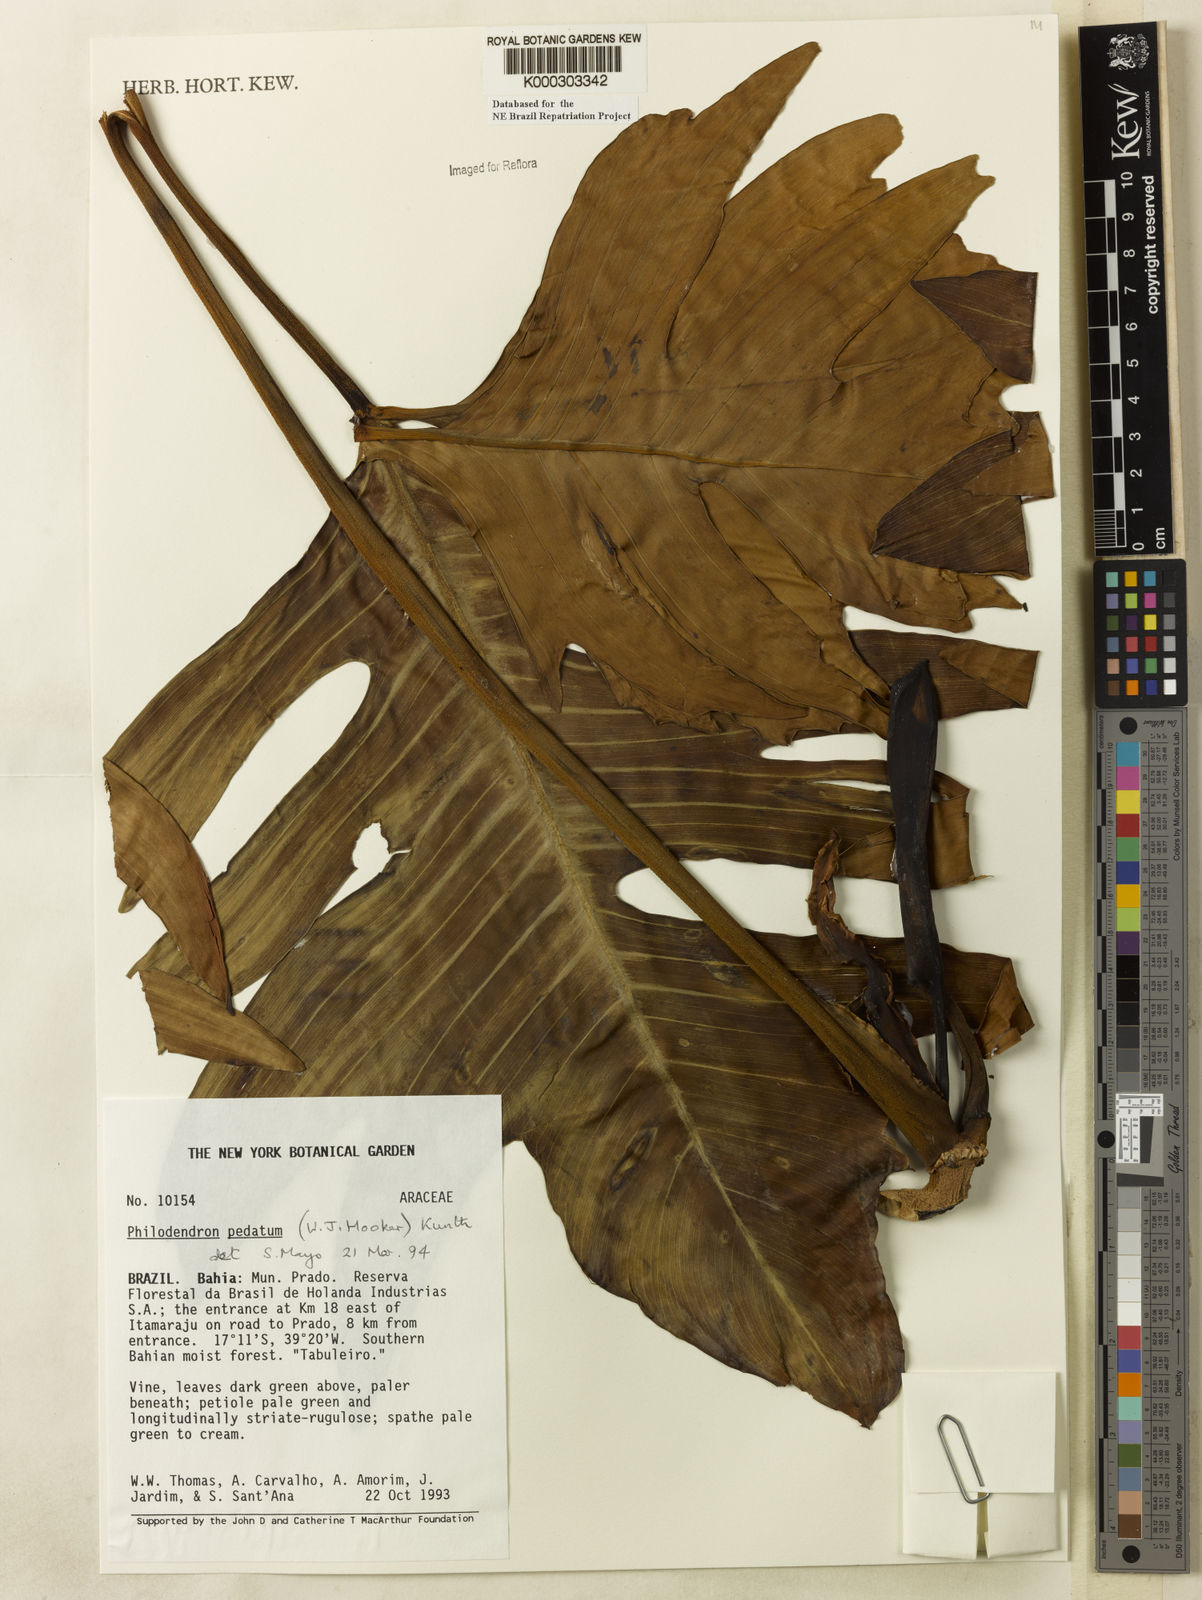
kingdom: Plantae
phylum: Tracheophyta
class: Liliopsida
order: Alismatales
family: Araceae
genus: Philodendron
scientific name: Philodendron pedatum
